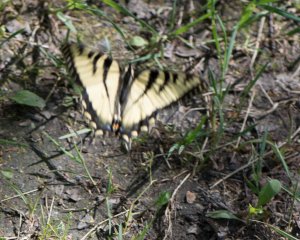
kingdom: Animalia
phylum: Arthropoda
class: Insecta
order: Lepidoptera
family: Papilionidae
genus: Pterourus
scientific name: Pterourus canadensis
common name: Canadian Tiger Swallowtail
